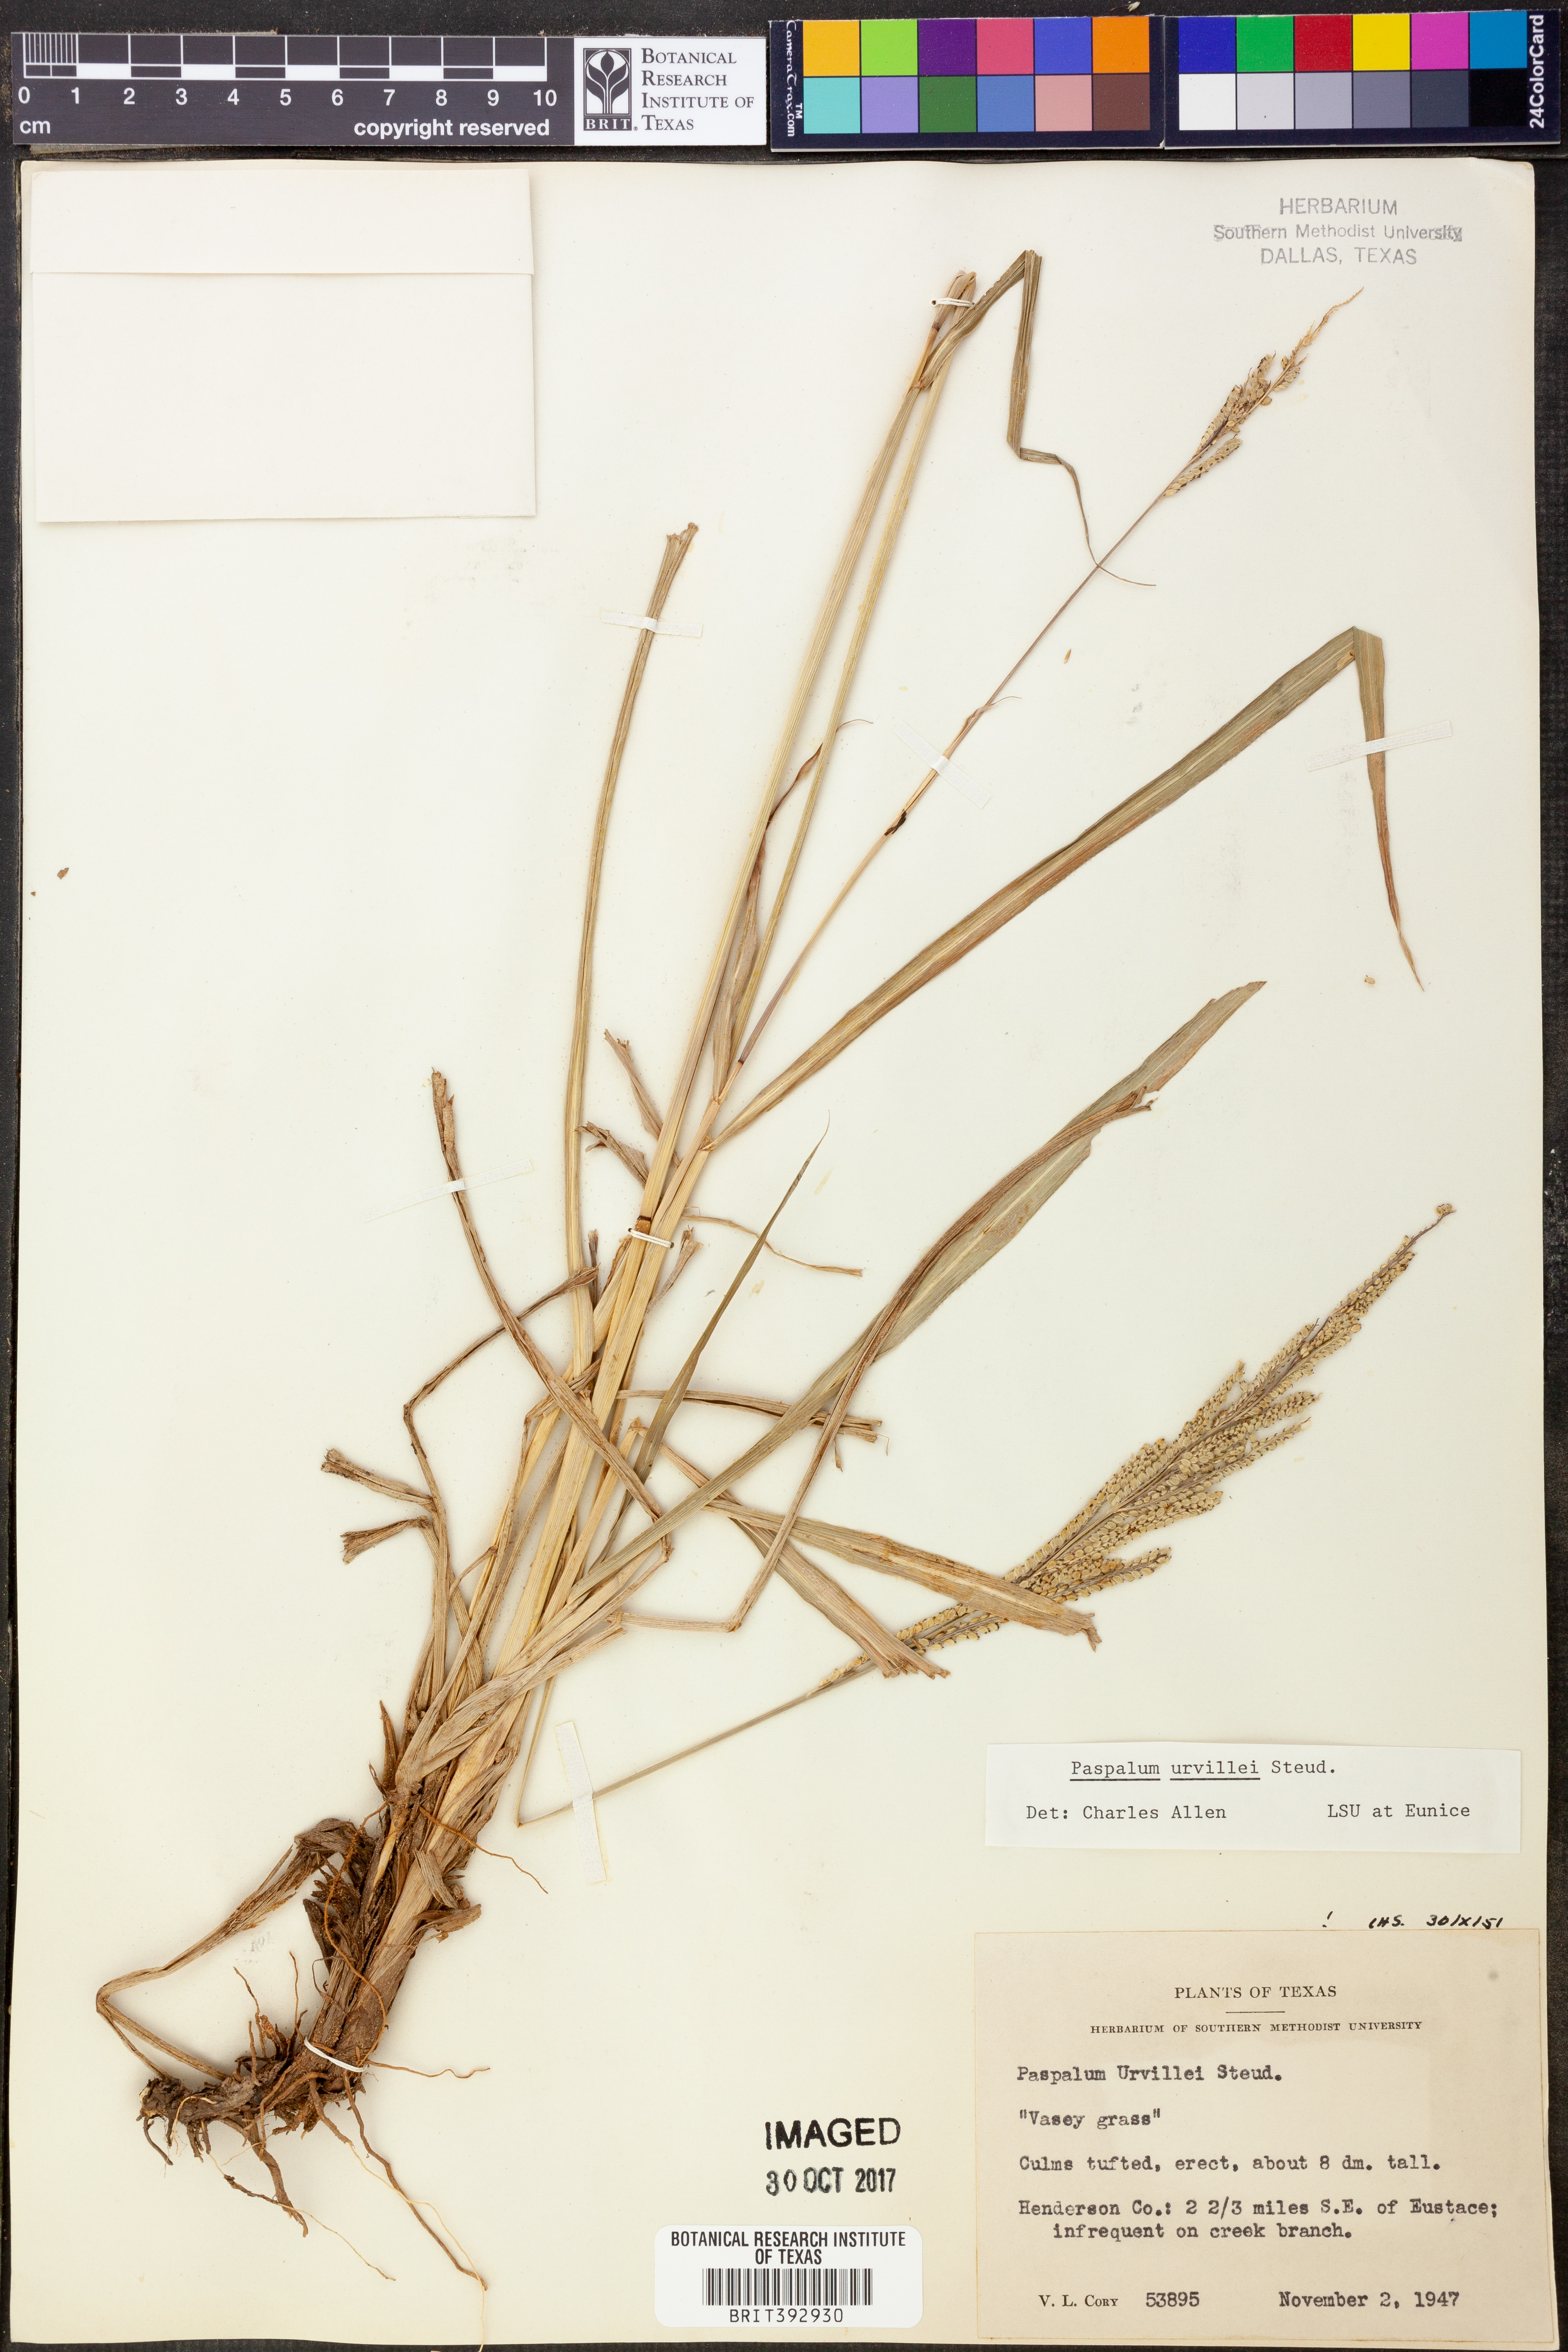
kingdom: Plantae
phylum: Tracheophyta
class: Liliopsida
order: Poales
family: Poaceae
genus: Paspalum
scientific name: Paspalum urvillei
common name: Vasey's grass
